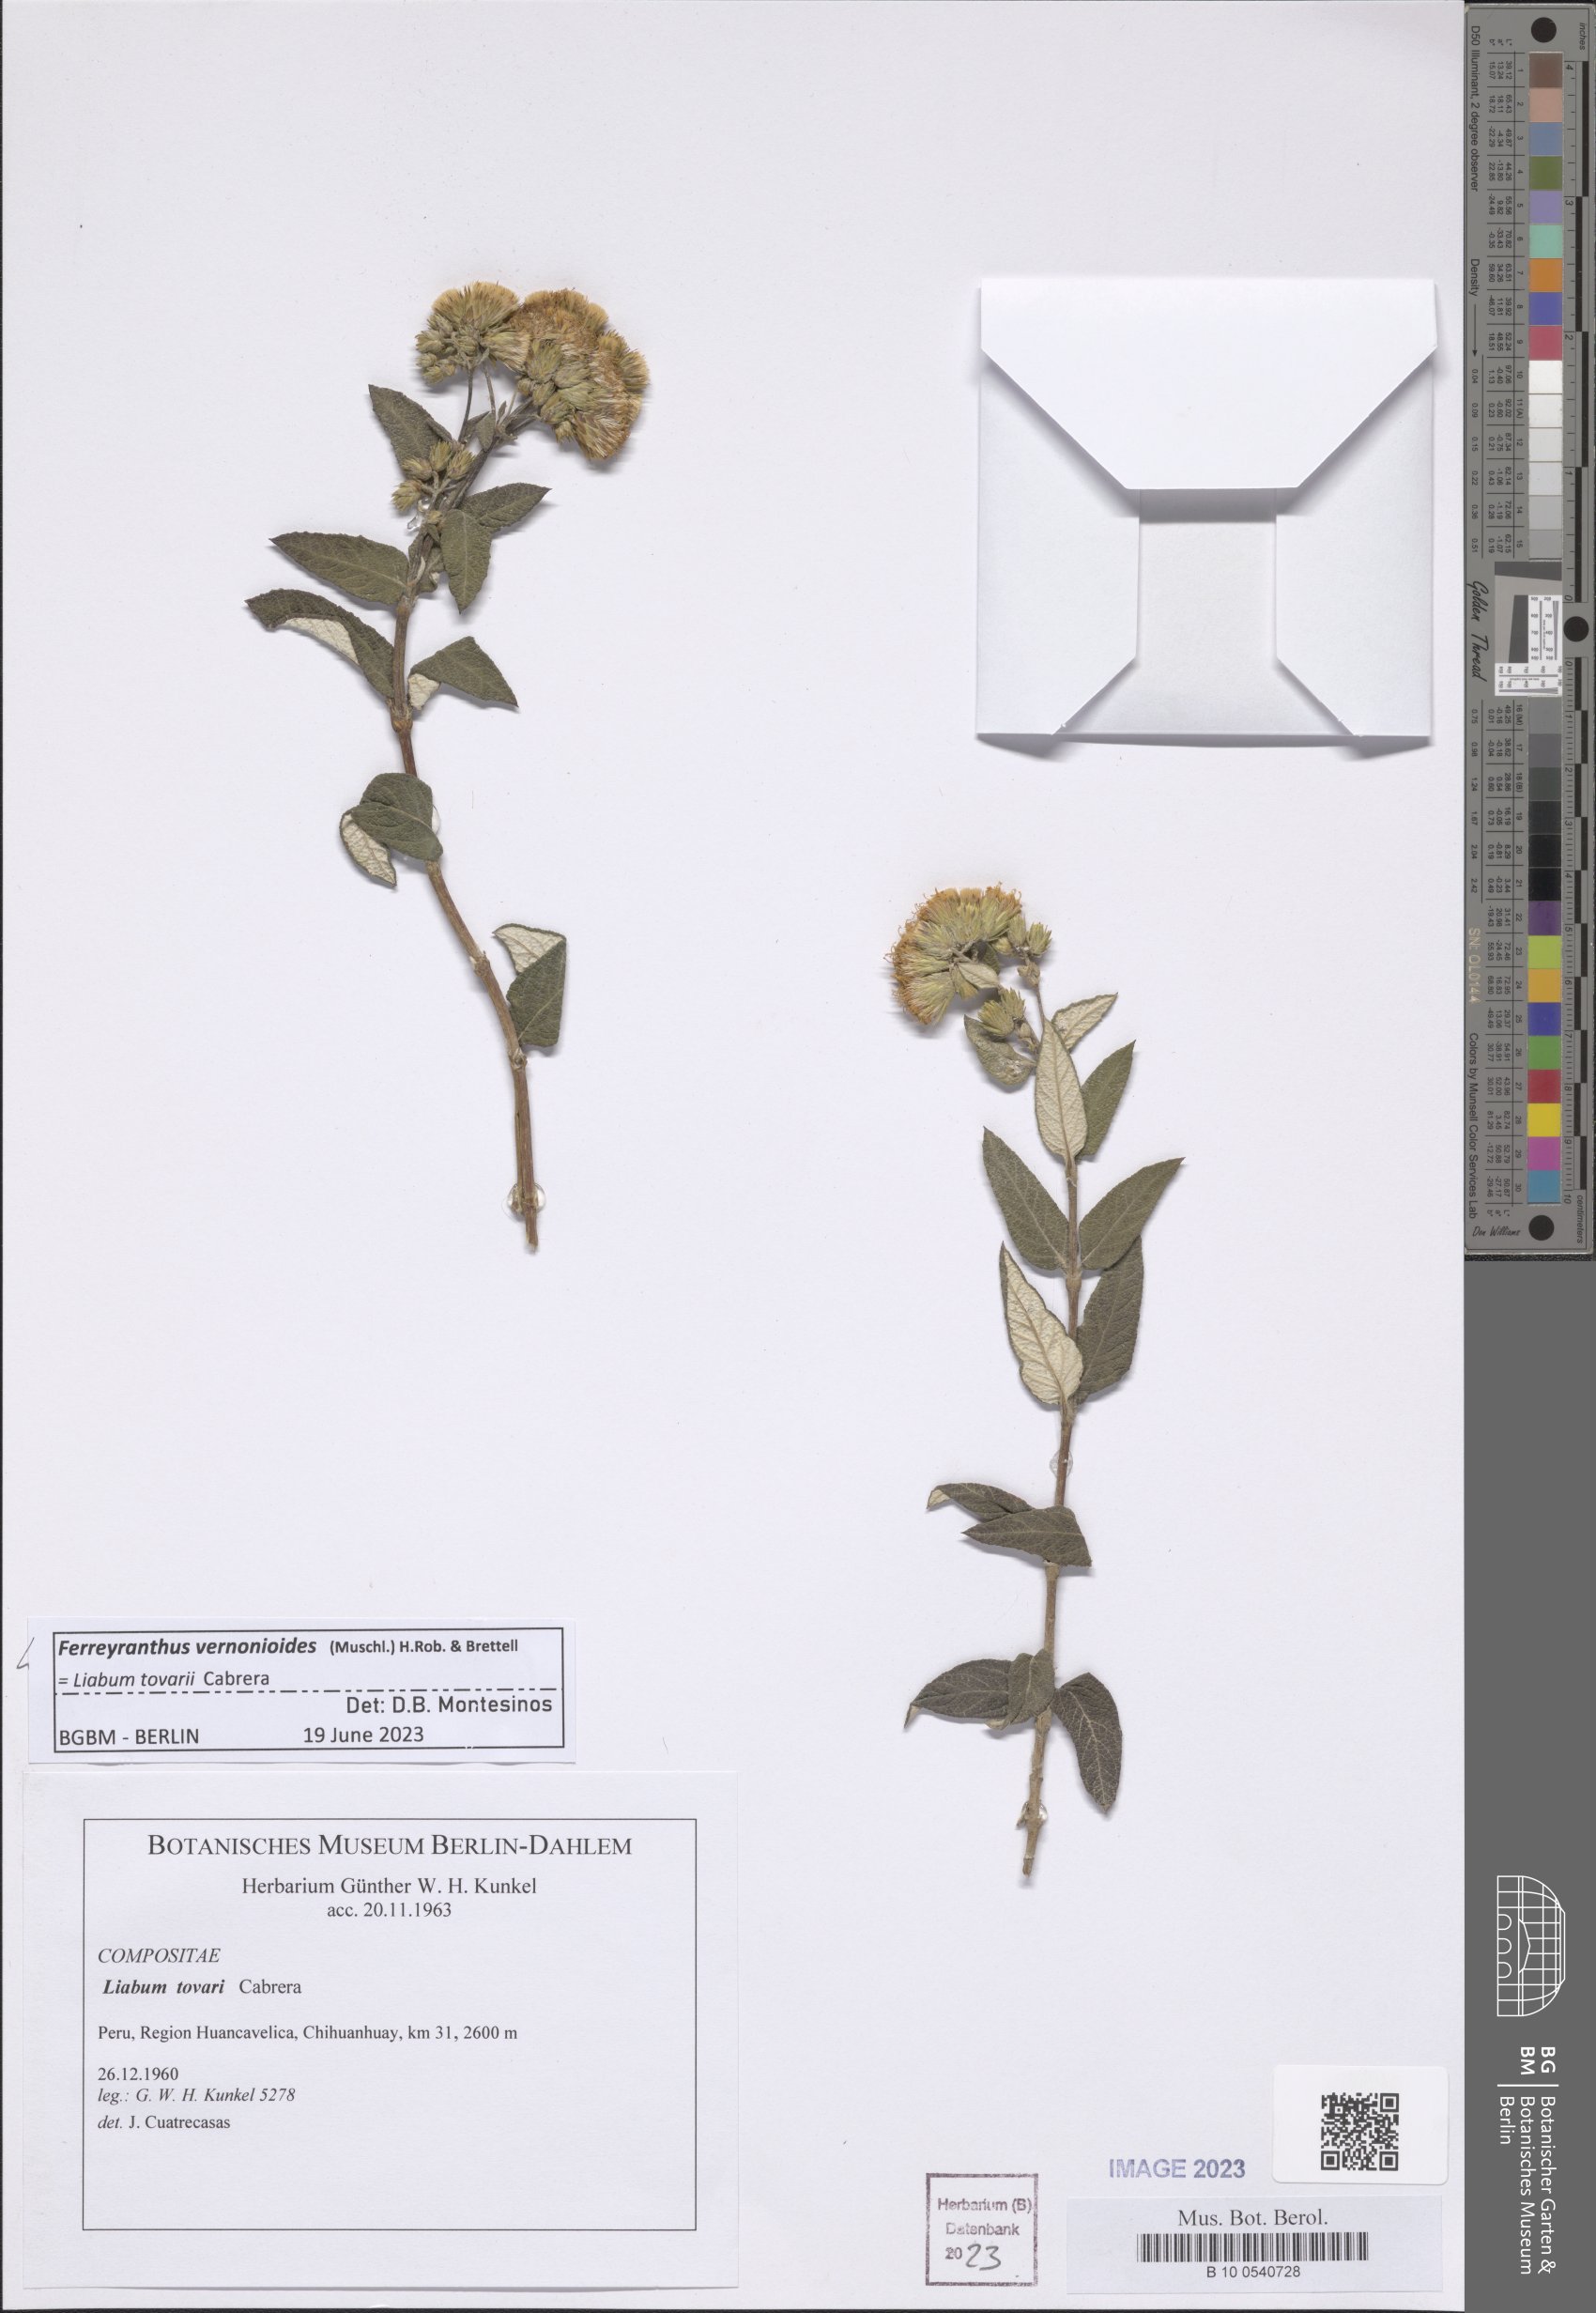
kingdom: Plantae
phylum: Tracheophyta
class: Magnoliopsida
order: Asterales
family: Asteraceae
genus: Ferreyranthus
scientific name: Ferreyranthus vernonioides
